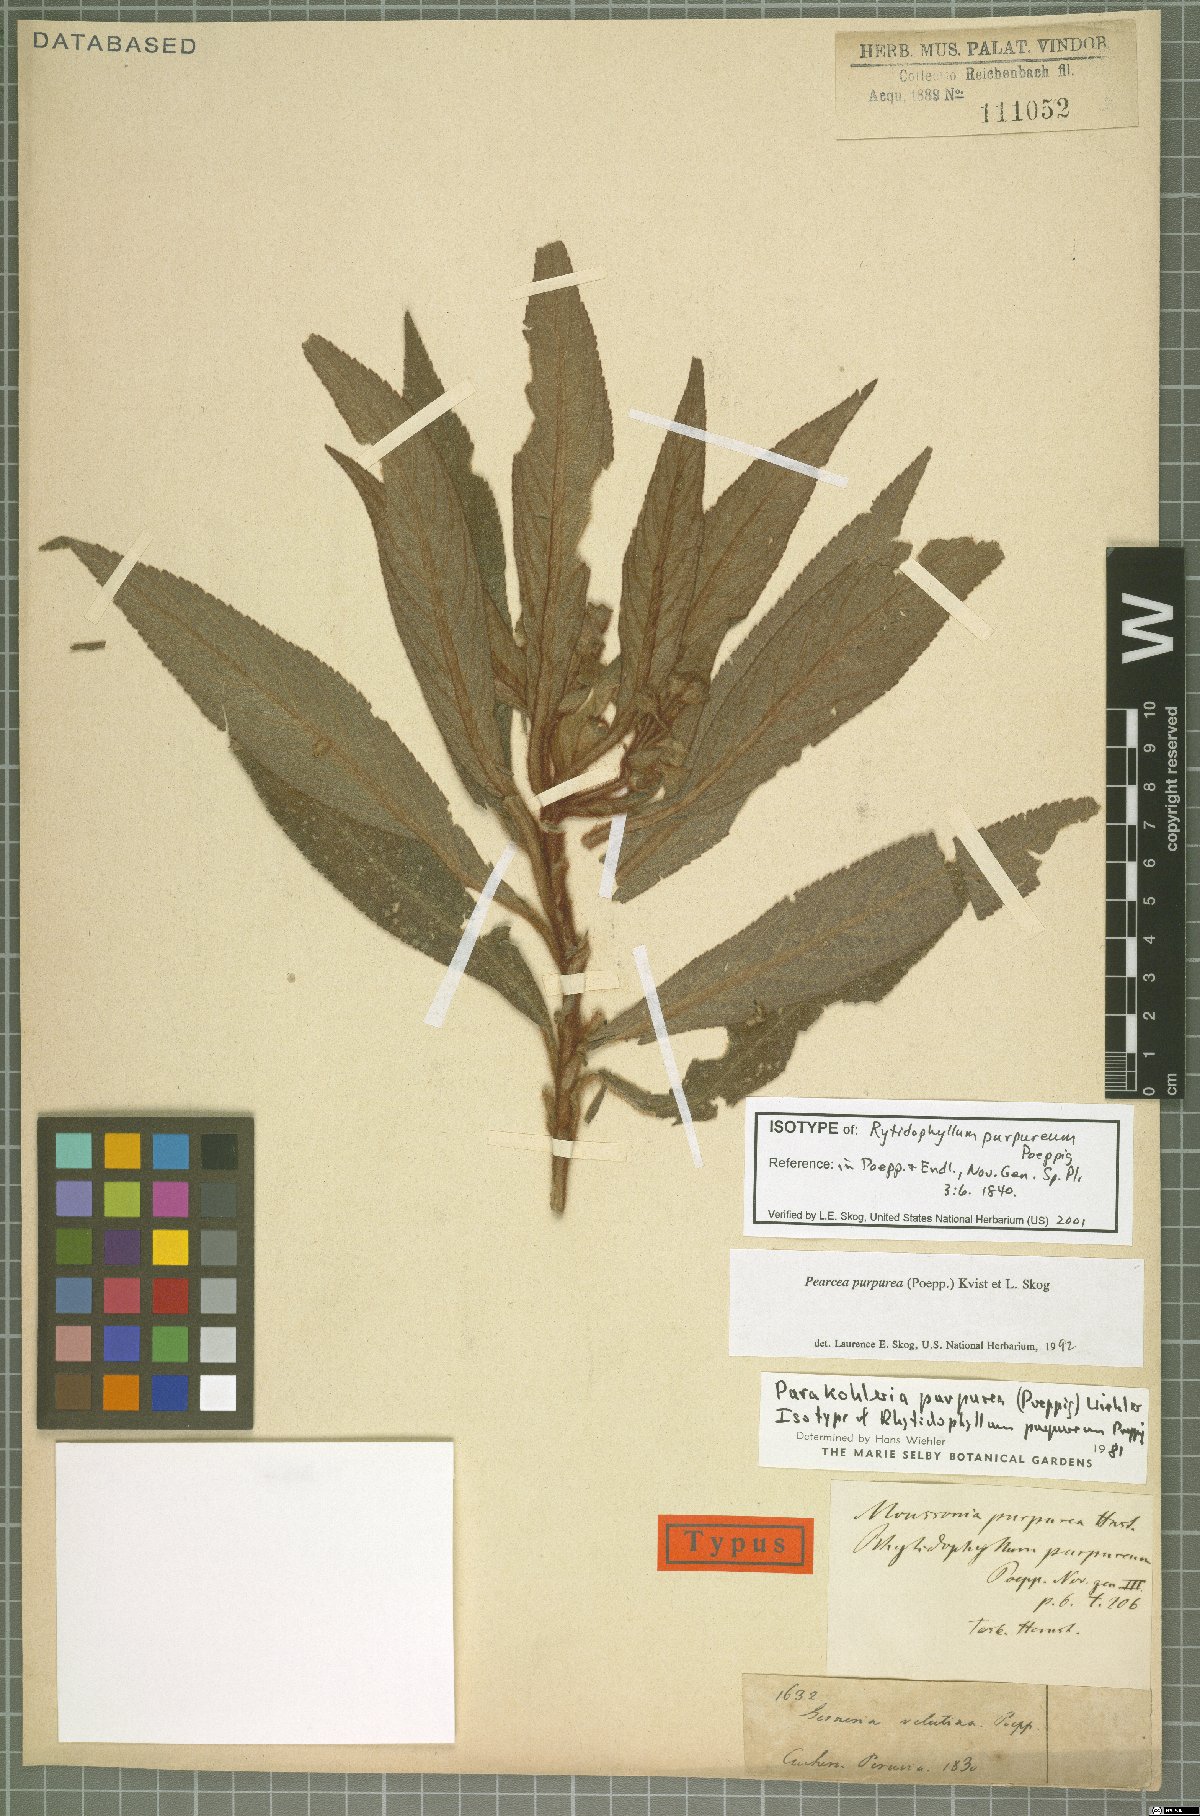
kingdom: Plantae
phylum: Tracheophyta
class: Magnoliopsida
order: Lamiales
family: Gesneriaceae
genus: Pearcea
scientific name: Pearcea purpurea
